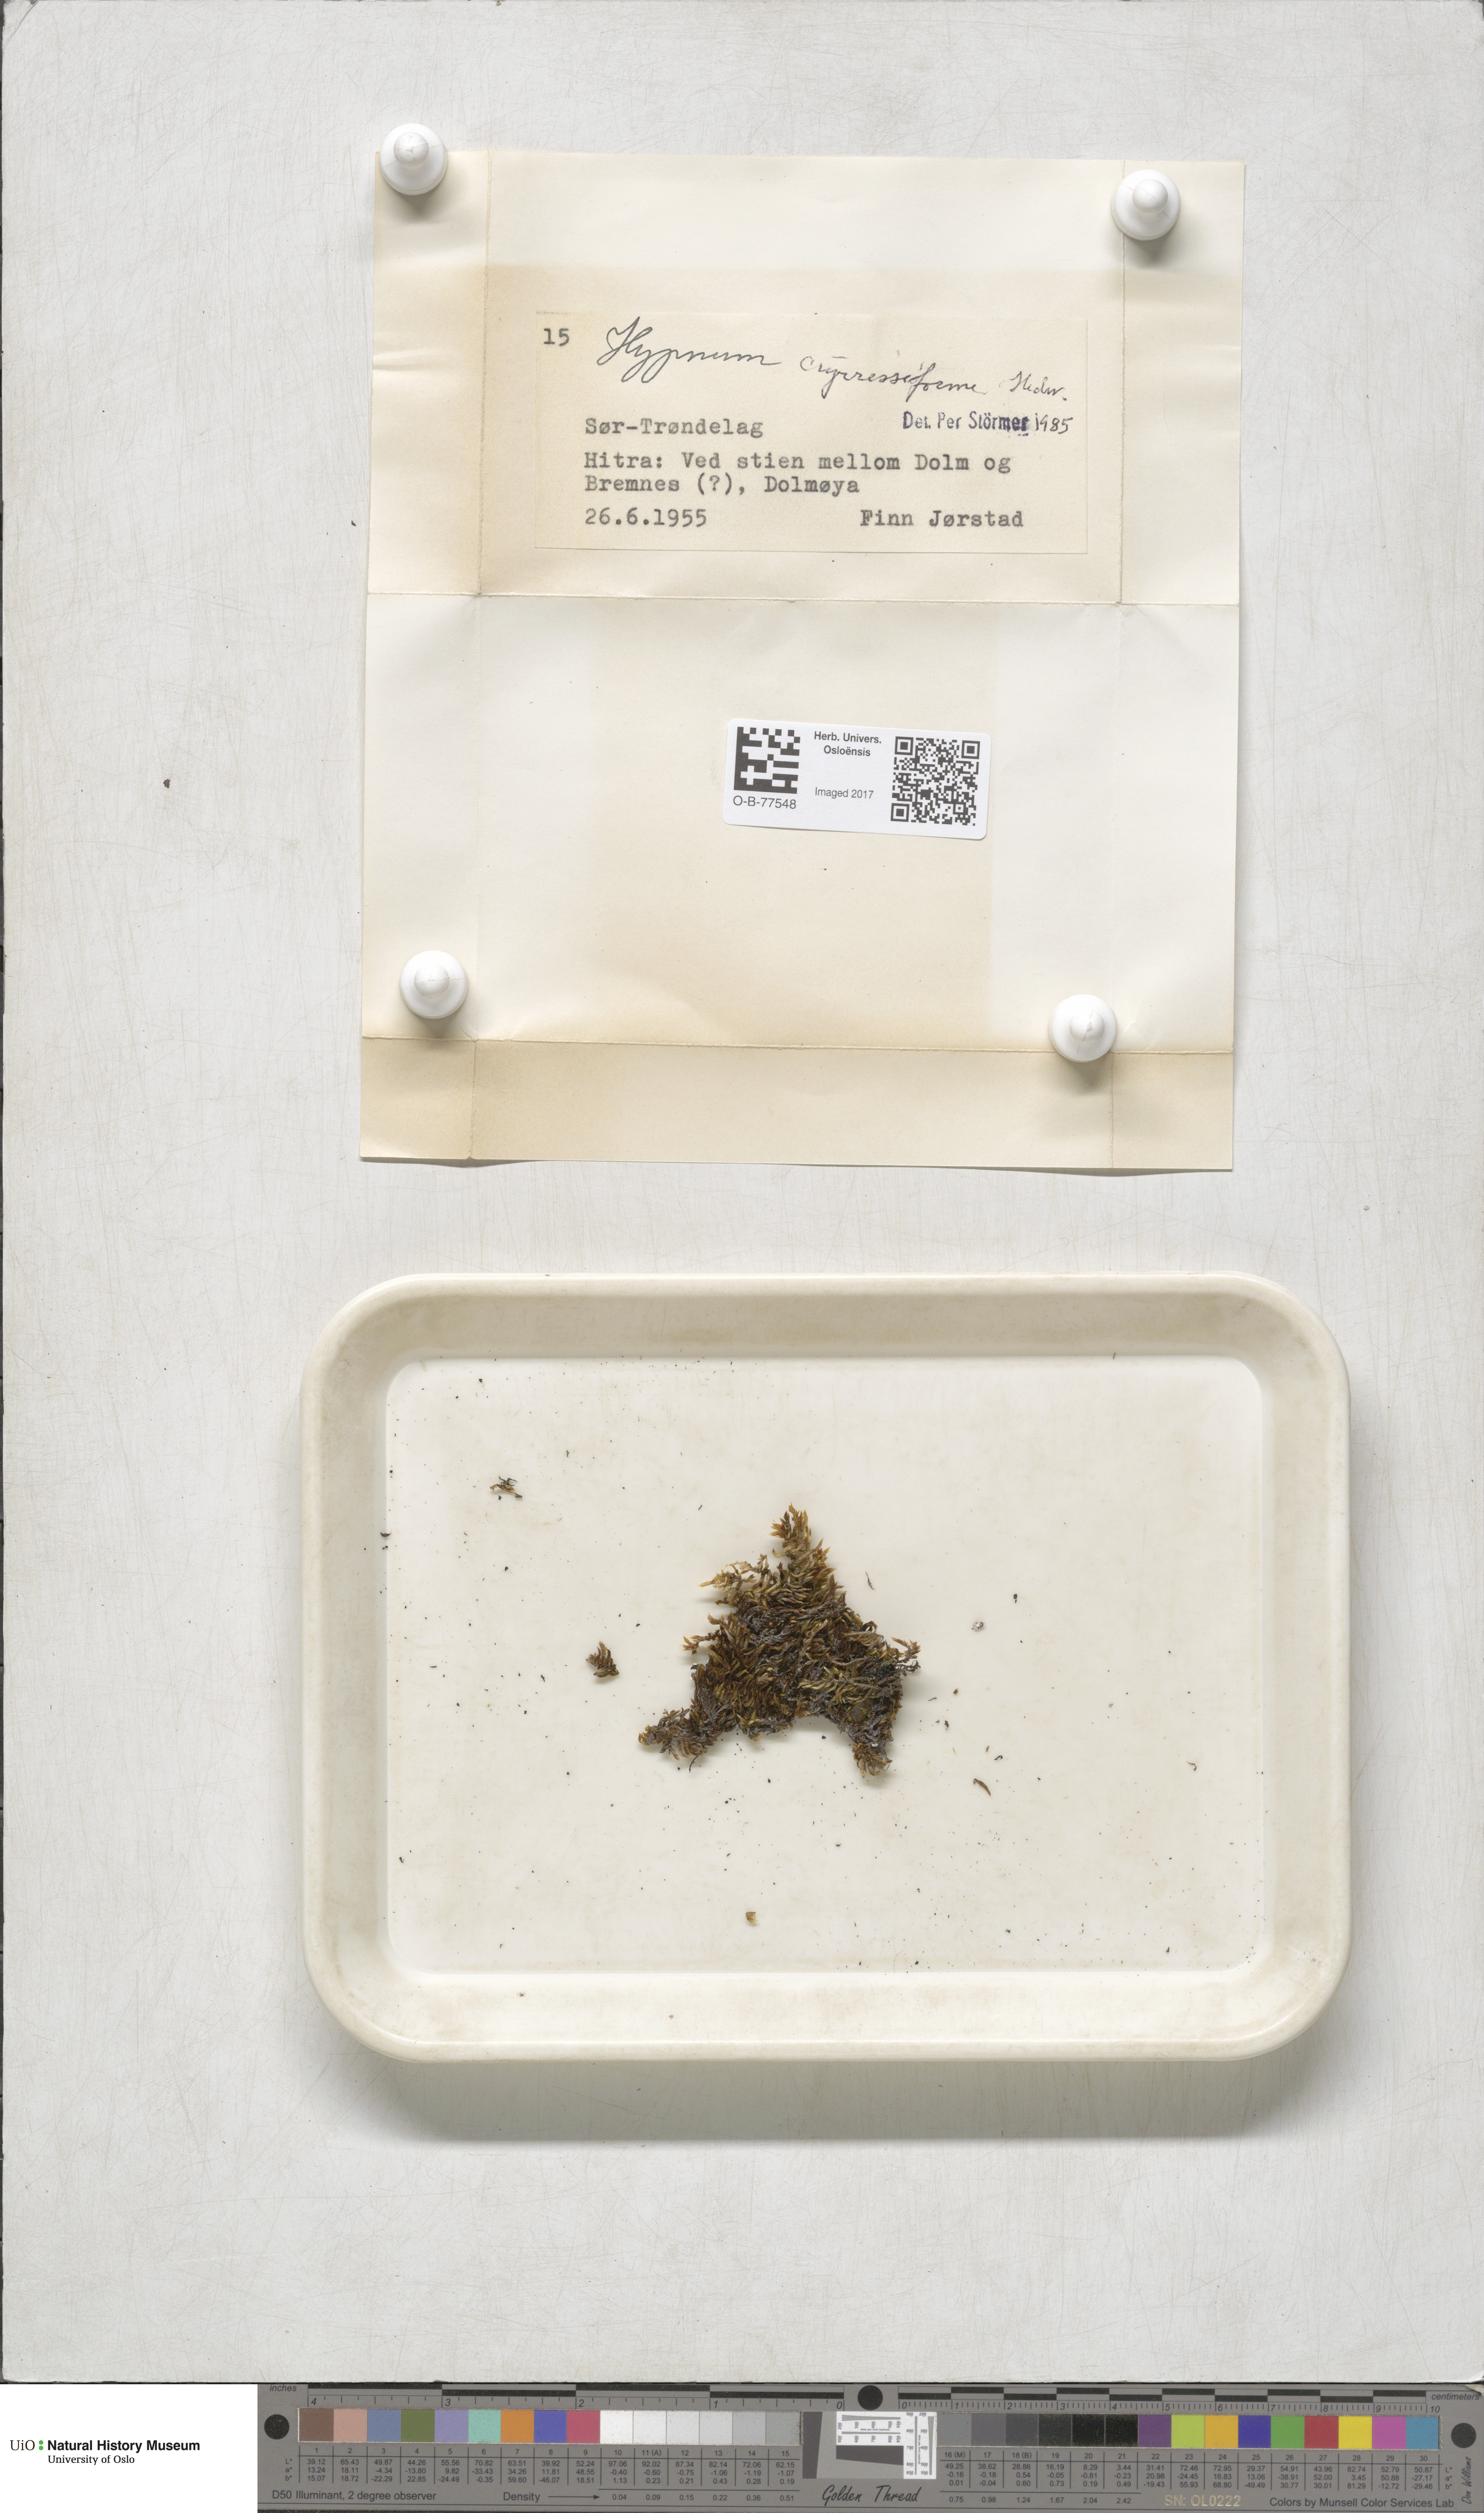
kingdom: Plantae
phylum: Bryophyta
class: Bryopsida
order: Hypnales
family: Hypnaceae
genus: Hypnum
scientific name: Hypnum cupressiforme
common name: Cypress-leaved plait-moss
